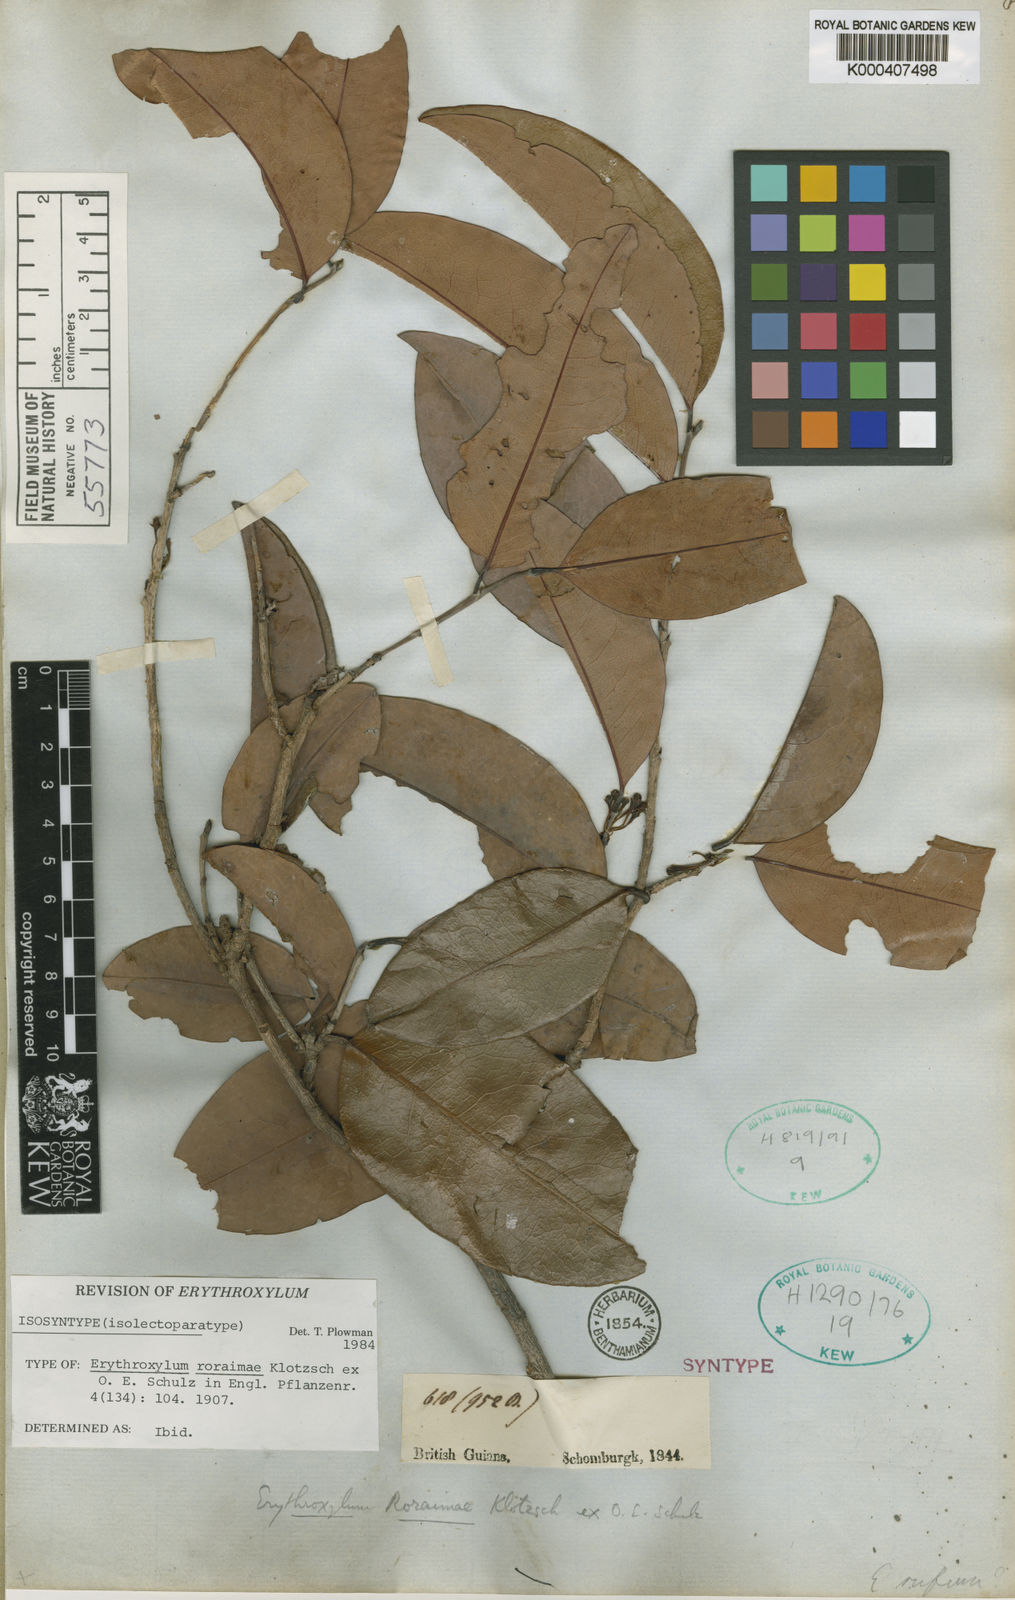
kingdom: Plantae
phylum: Tracheophyta
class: Magnoliopsida
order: Malpighiales
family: Erythroxylaceae
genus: Erythroxylum
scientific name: Erythroxylum roraimae
